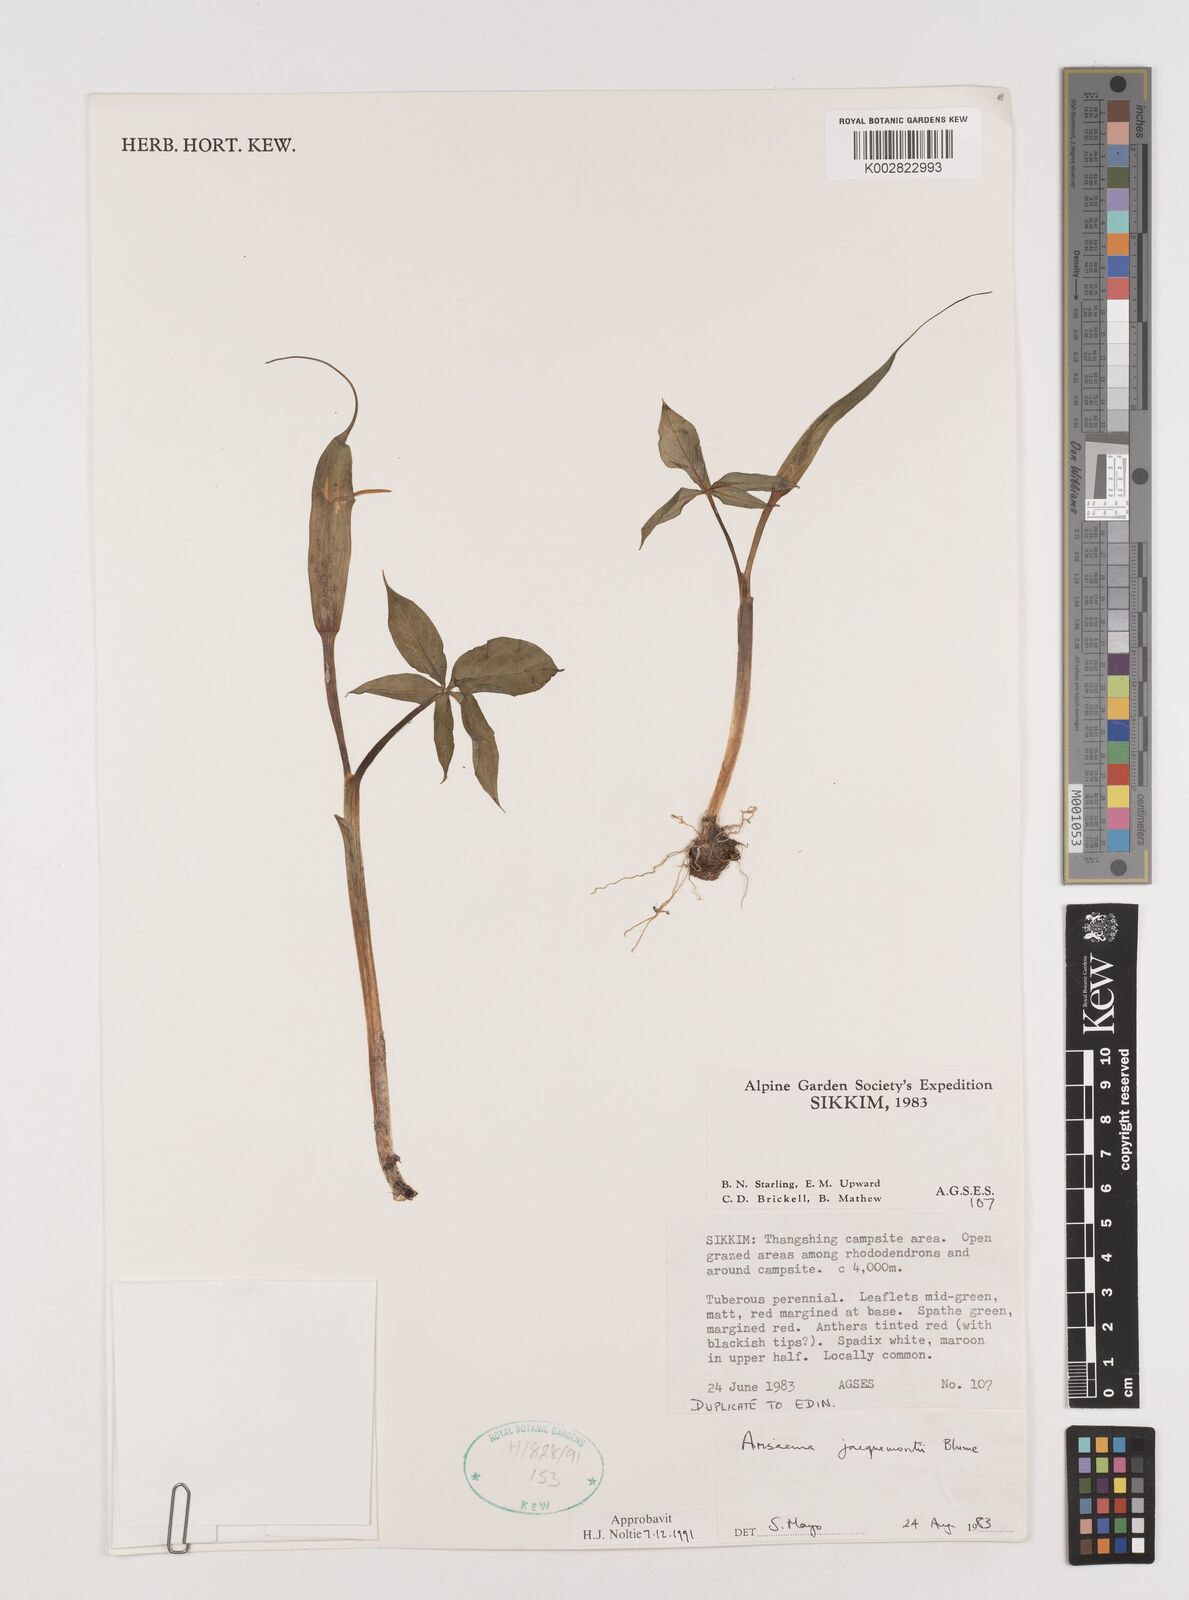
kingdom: Plantae
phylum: Tracheophyta
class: Liliopsida
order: Alismatales
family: Araceae
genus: Arisaema
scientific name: Arisaema jacquemontii
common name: Jacquemont's cobra-lily
